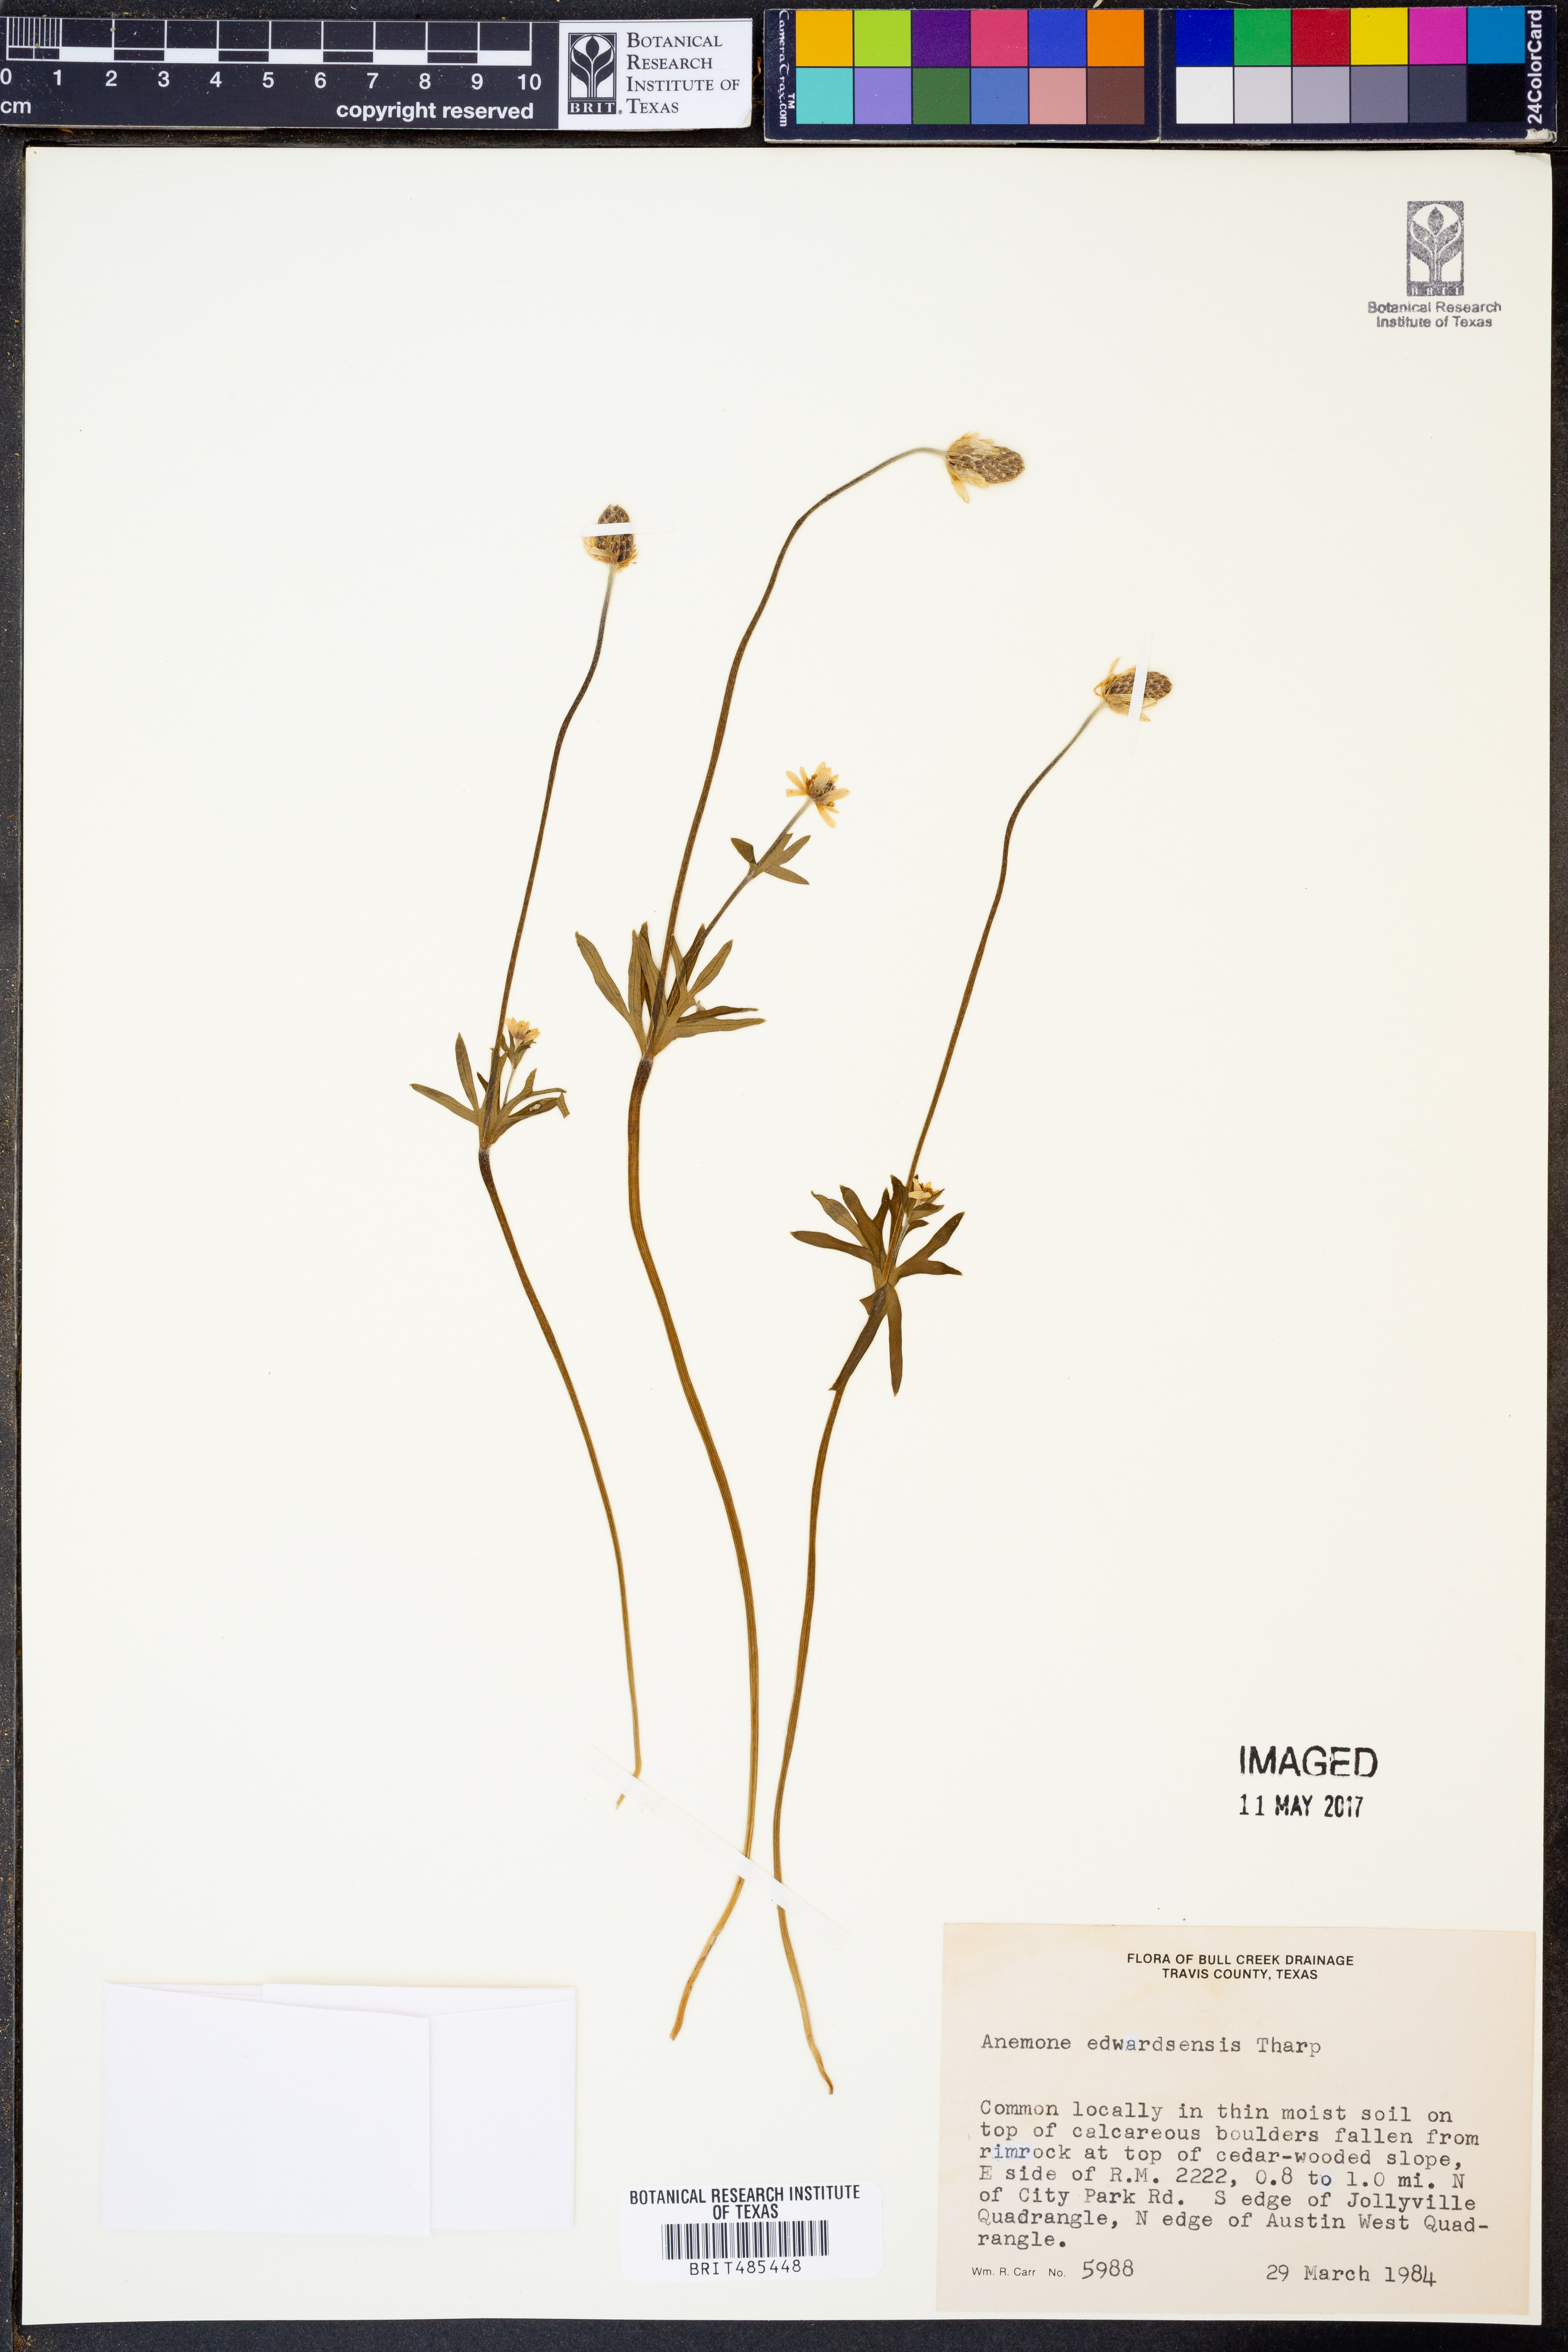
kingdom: Plantae
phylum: Tracheophyta
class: Magnoliopsida
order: Ranunculales
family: Ranunculaceae
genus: Anemone
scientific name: Anemone edwardsiana
